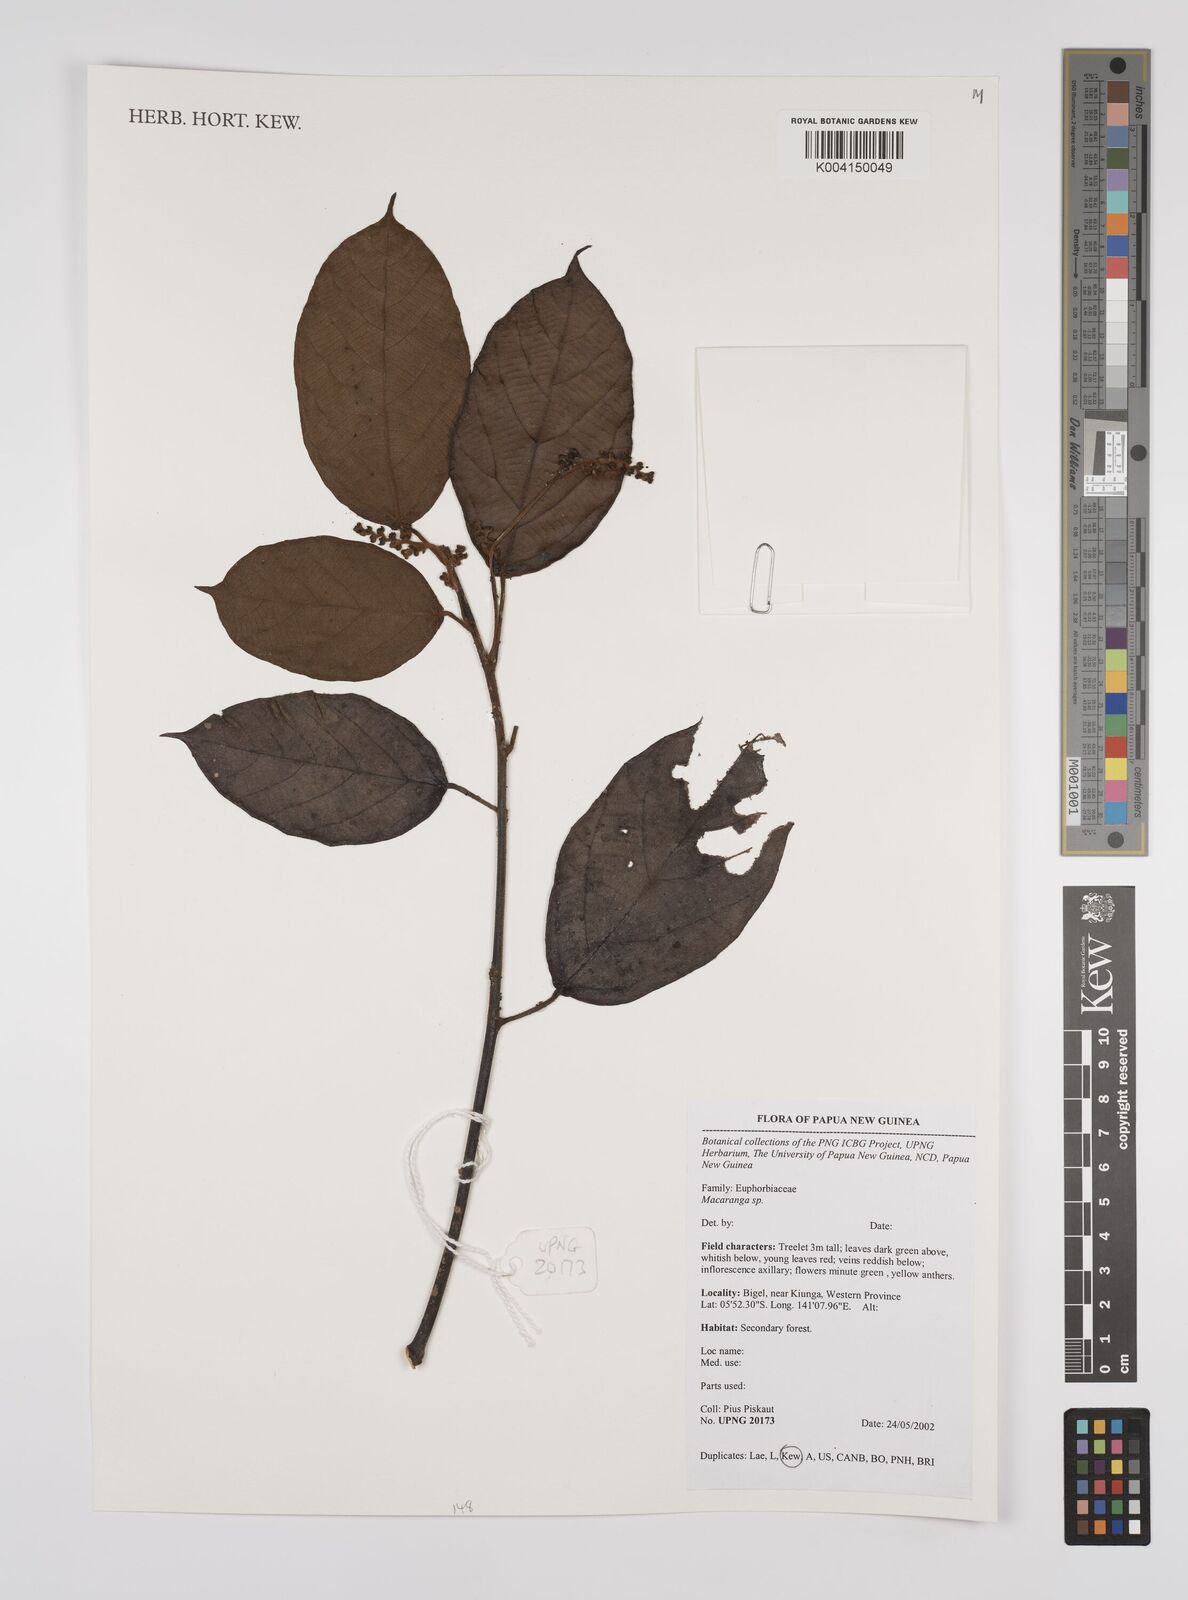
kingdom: Plantae
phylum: Tracheophyta
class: Magnoliopsida
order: Malpighiales
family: Euphorbiaceae
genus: Macaranga
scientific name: Macaranga
